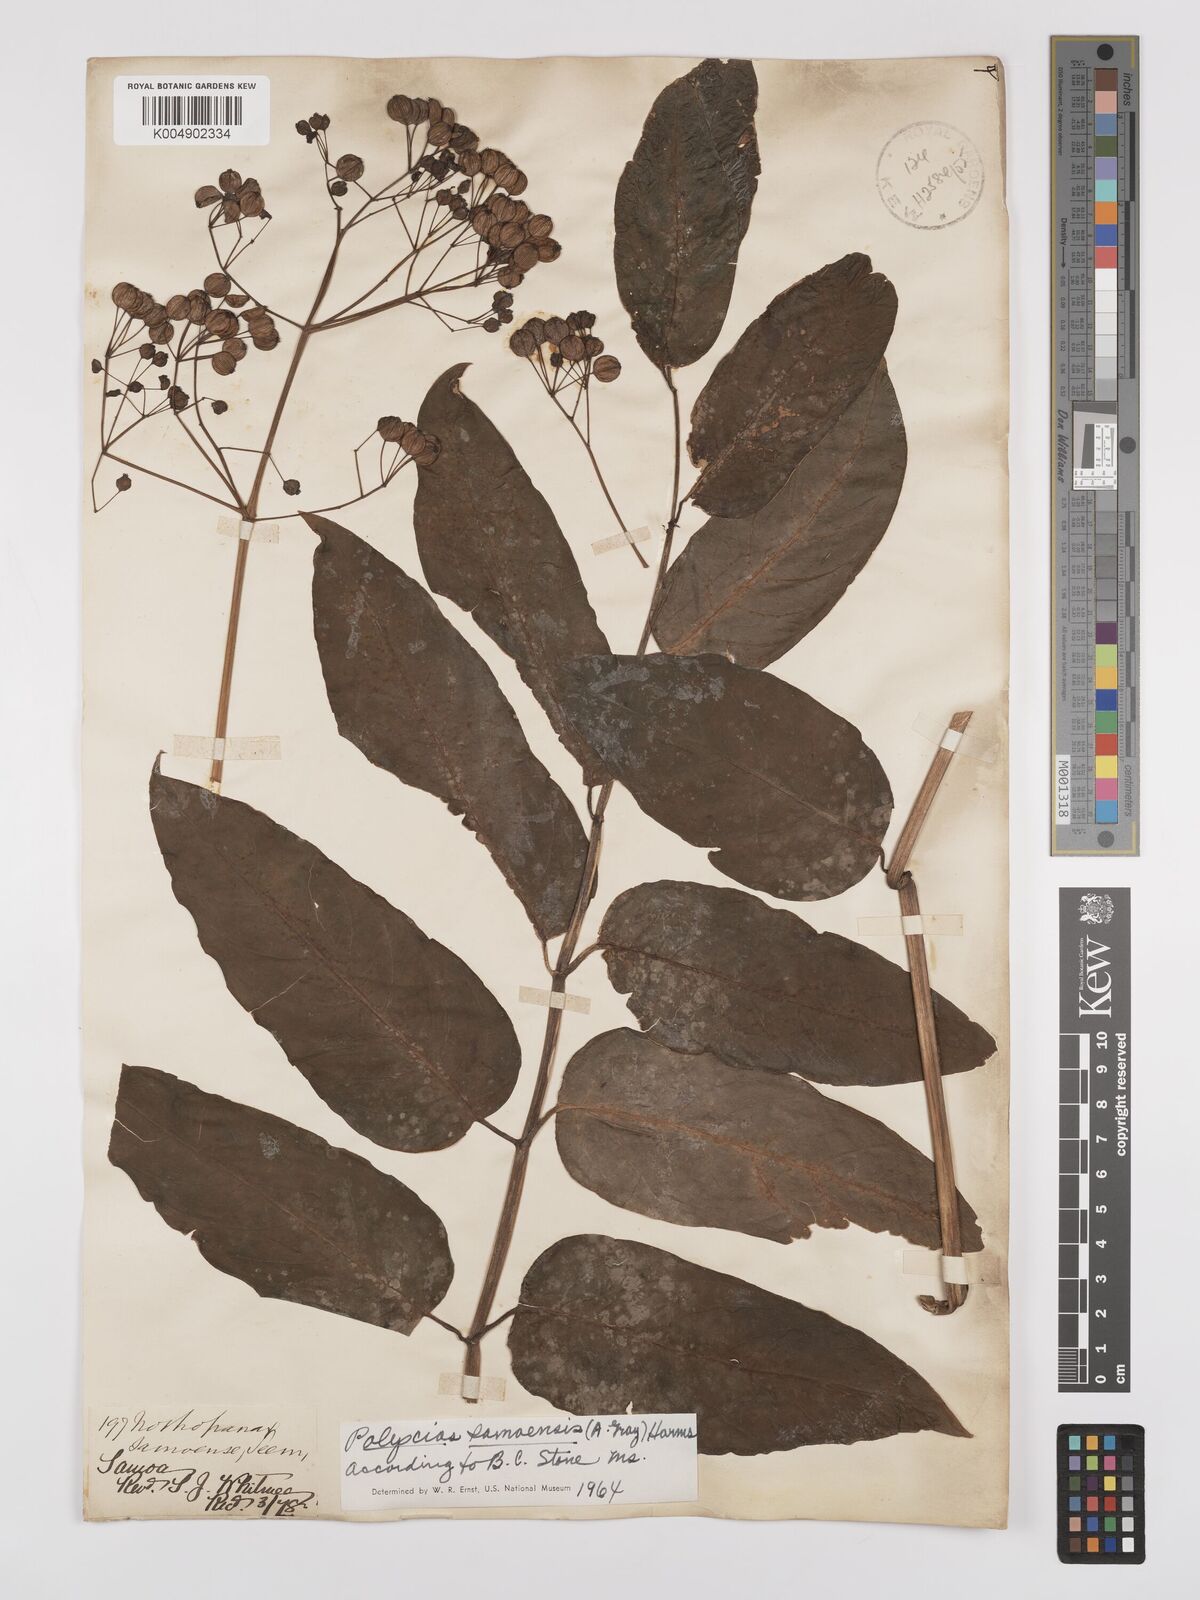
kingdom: Plantae
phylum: Tracheophyta
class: Magnoliopsida
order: Apiales
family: Araliaceae
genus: Polyscias
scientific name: Polyscias samoensis
